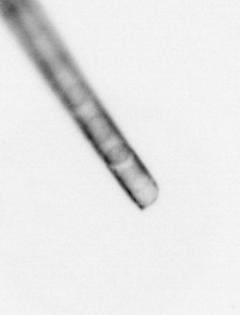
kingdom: Chromista
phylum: Ochrophyta
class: Bacillariophyceae
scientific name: Bacillariophyceae
